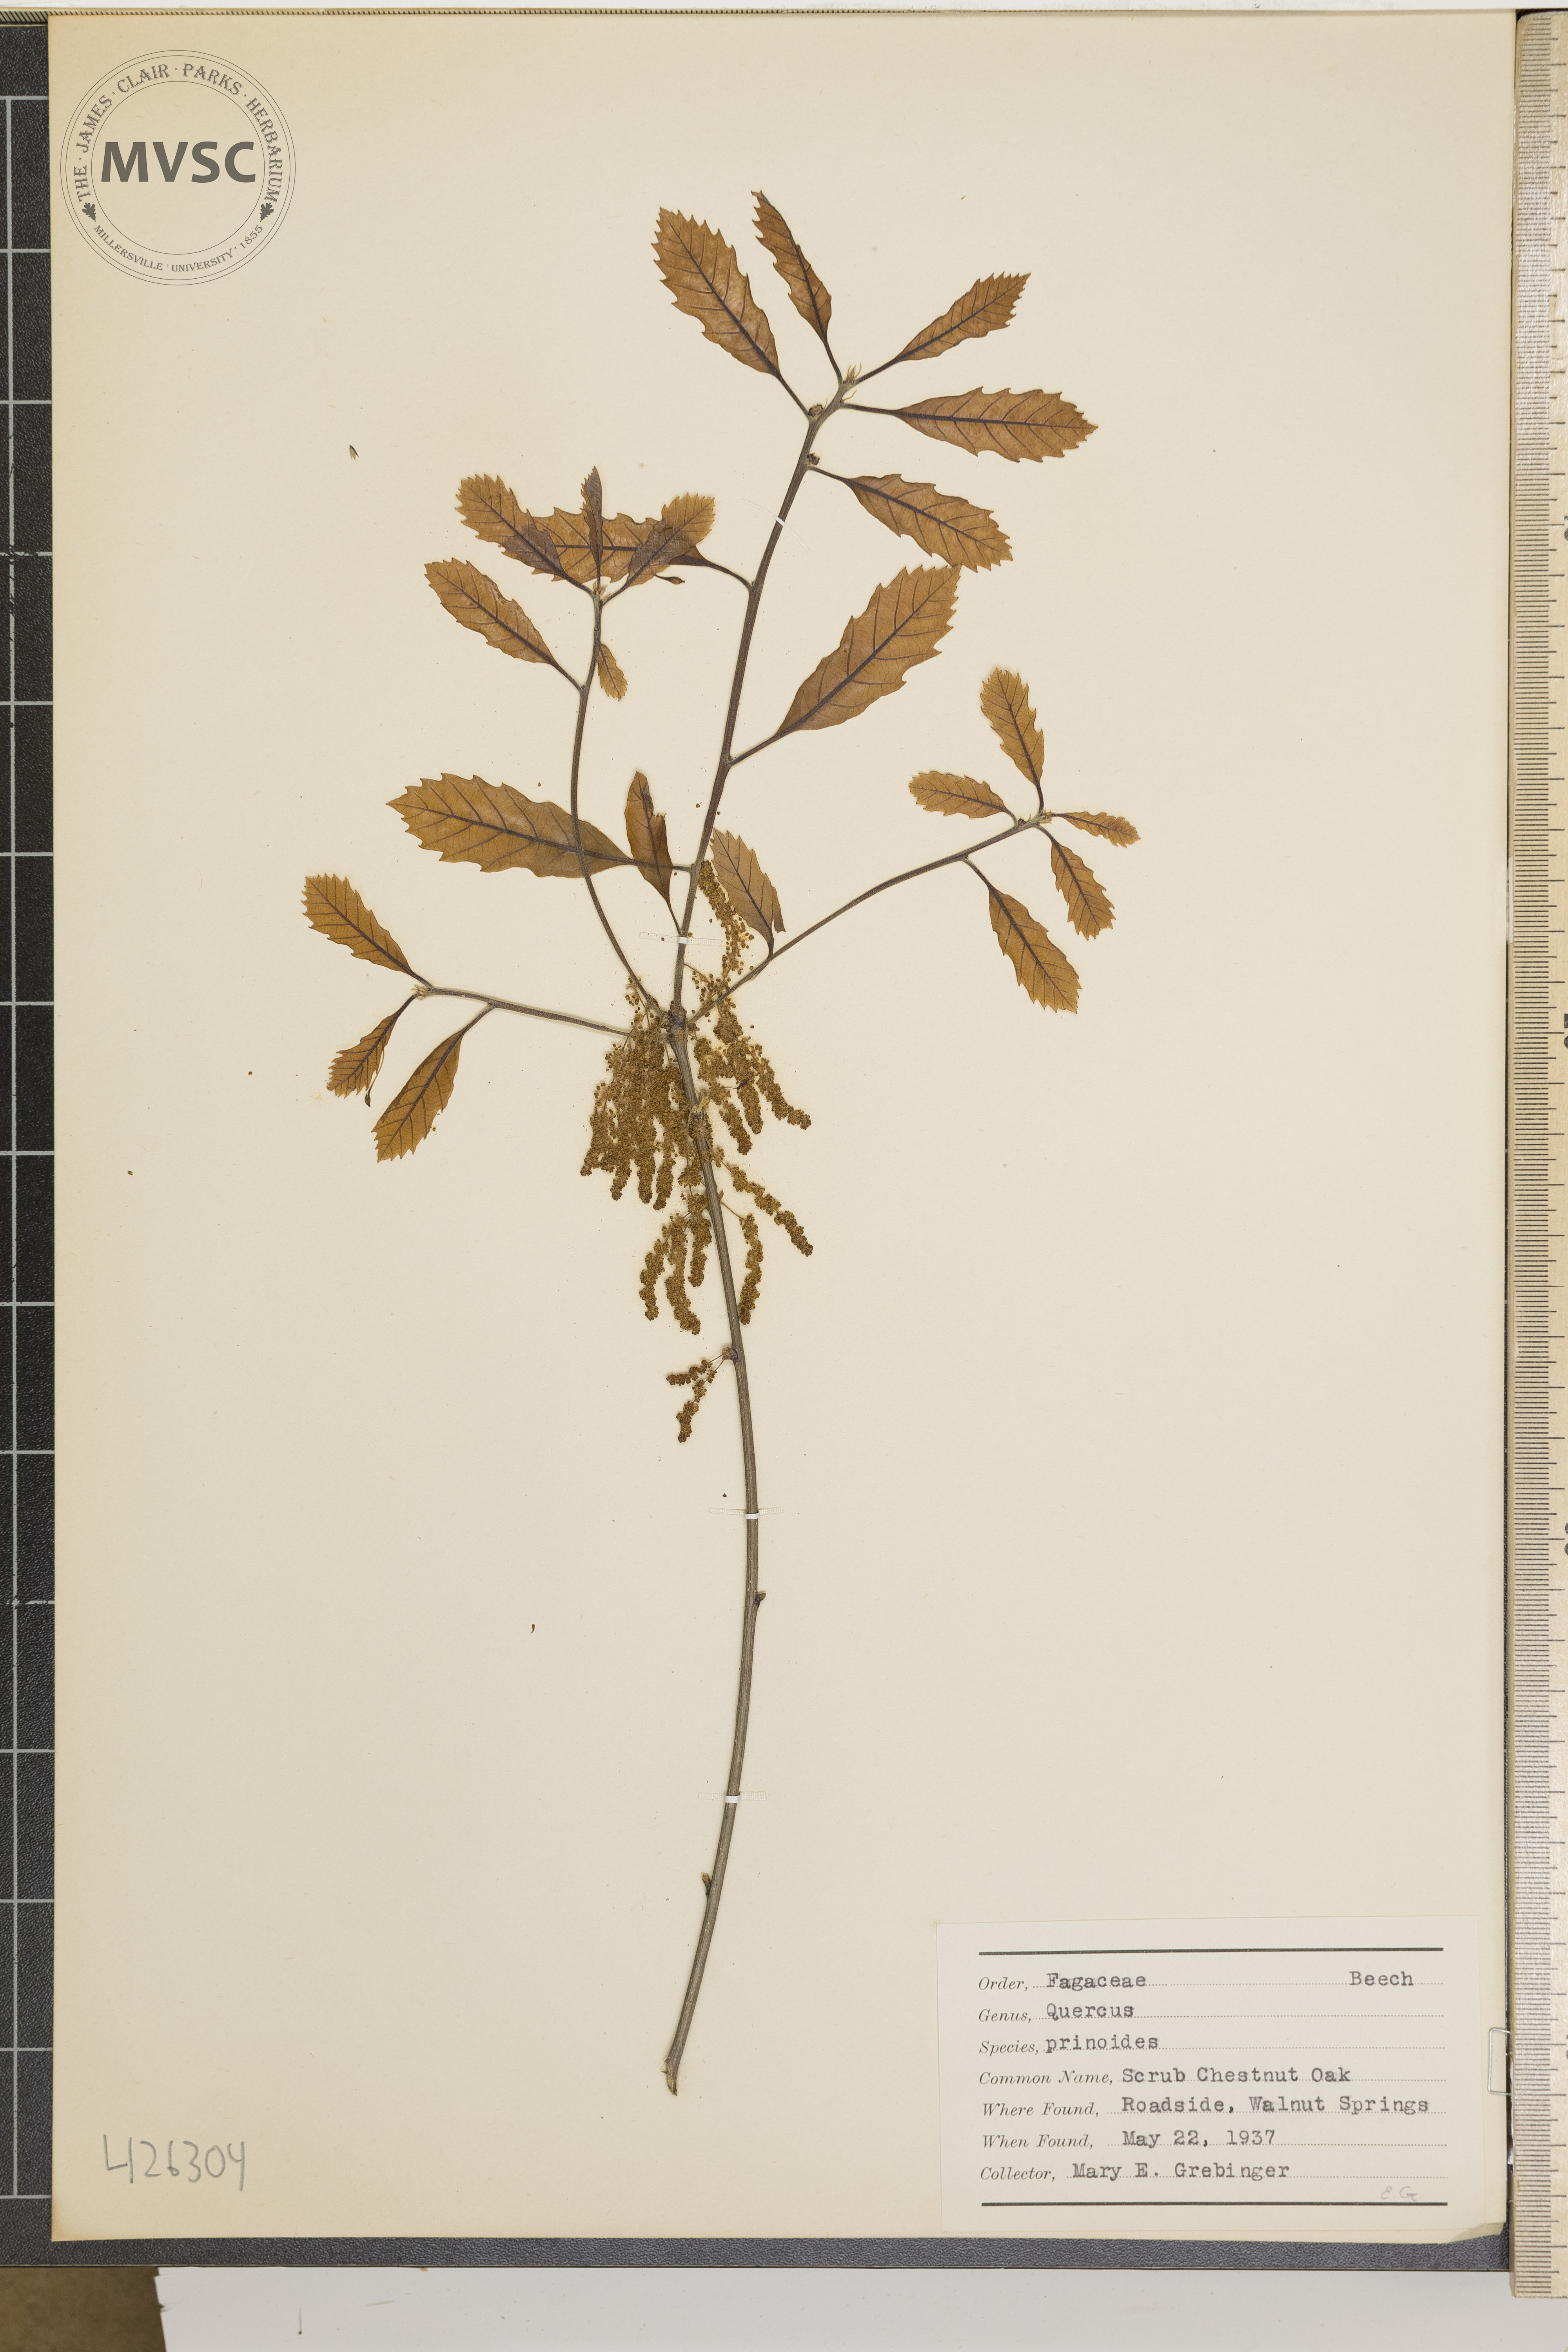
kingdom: Plantae
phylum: Tracheophyta
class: Magnoliopsida
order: Fagales
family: Fagaceae
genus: Quercus
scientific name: Quercus prinoides
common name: Scrub chestnut oak
